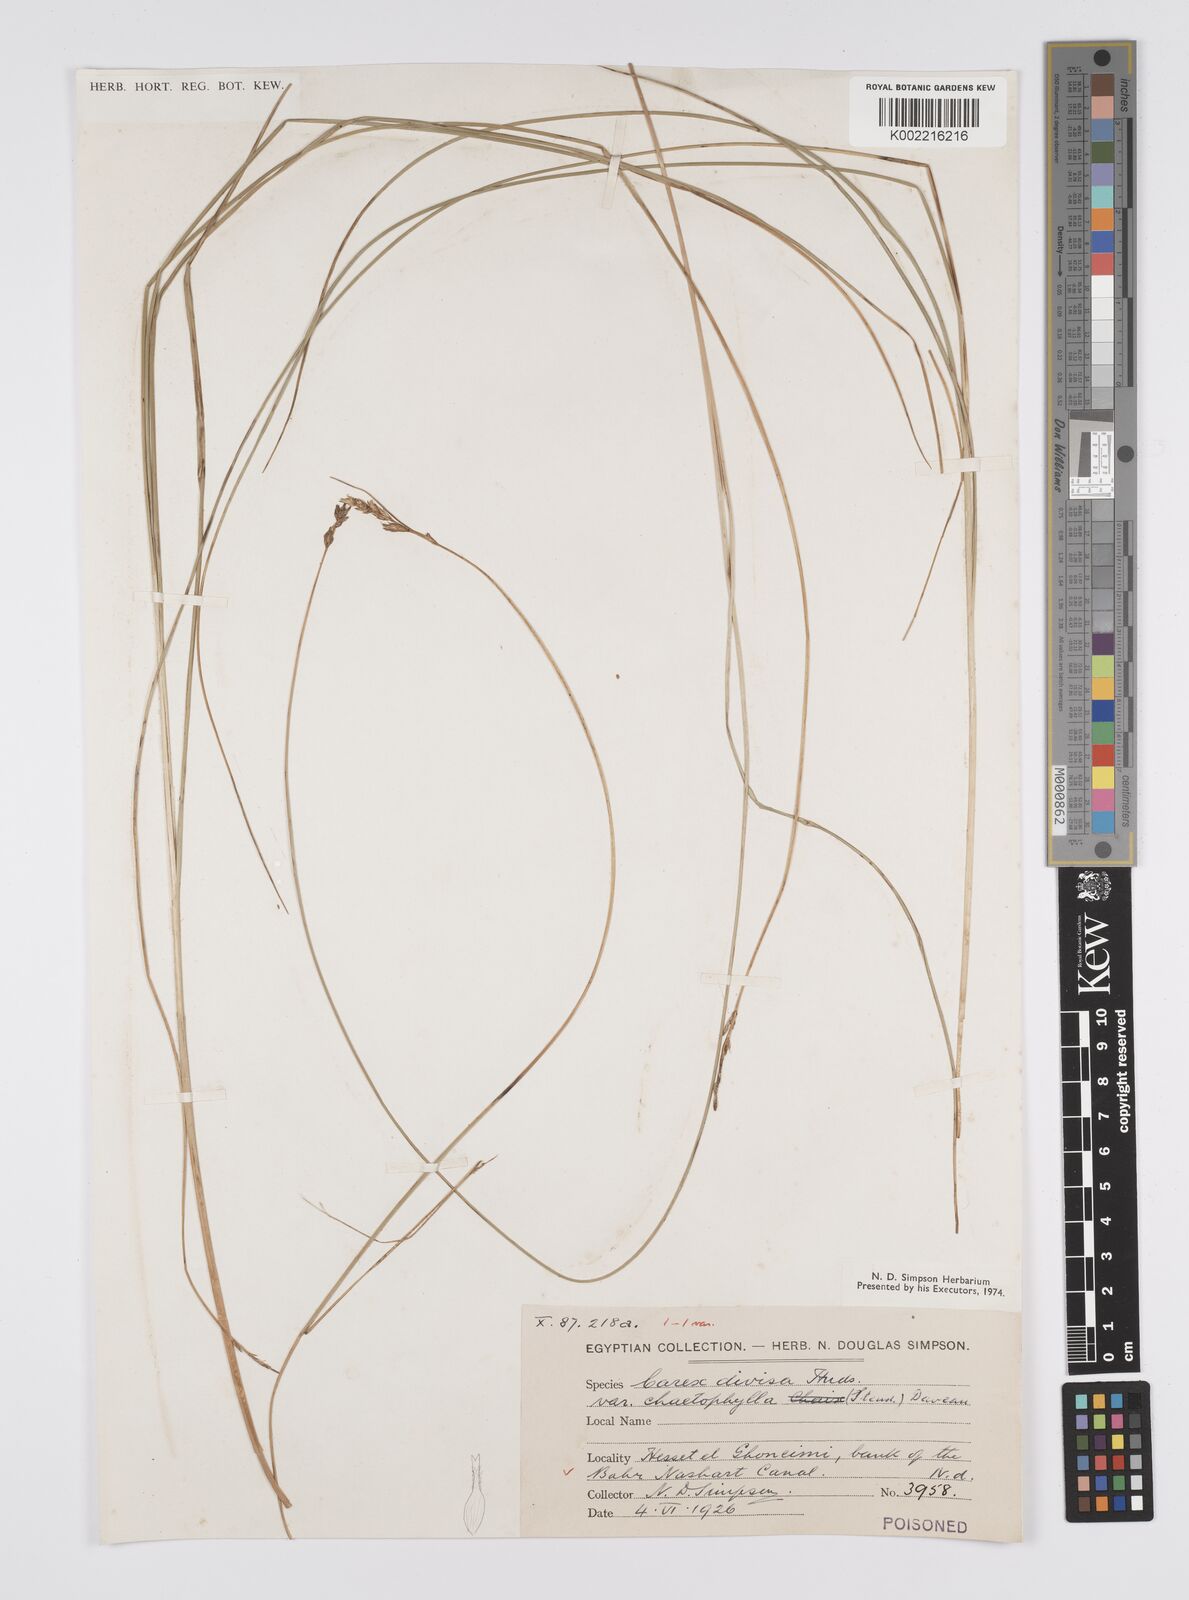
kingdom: Plantae
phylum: Tracheophyta
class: Liliopsida
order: Poales
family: Cyperaceae
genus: Carex
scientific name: Carex divisa
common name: Divided sedge
